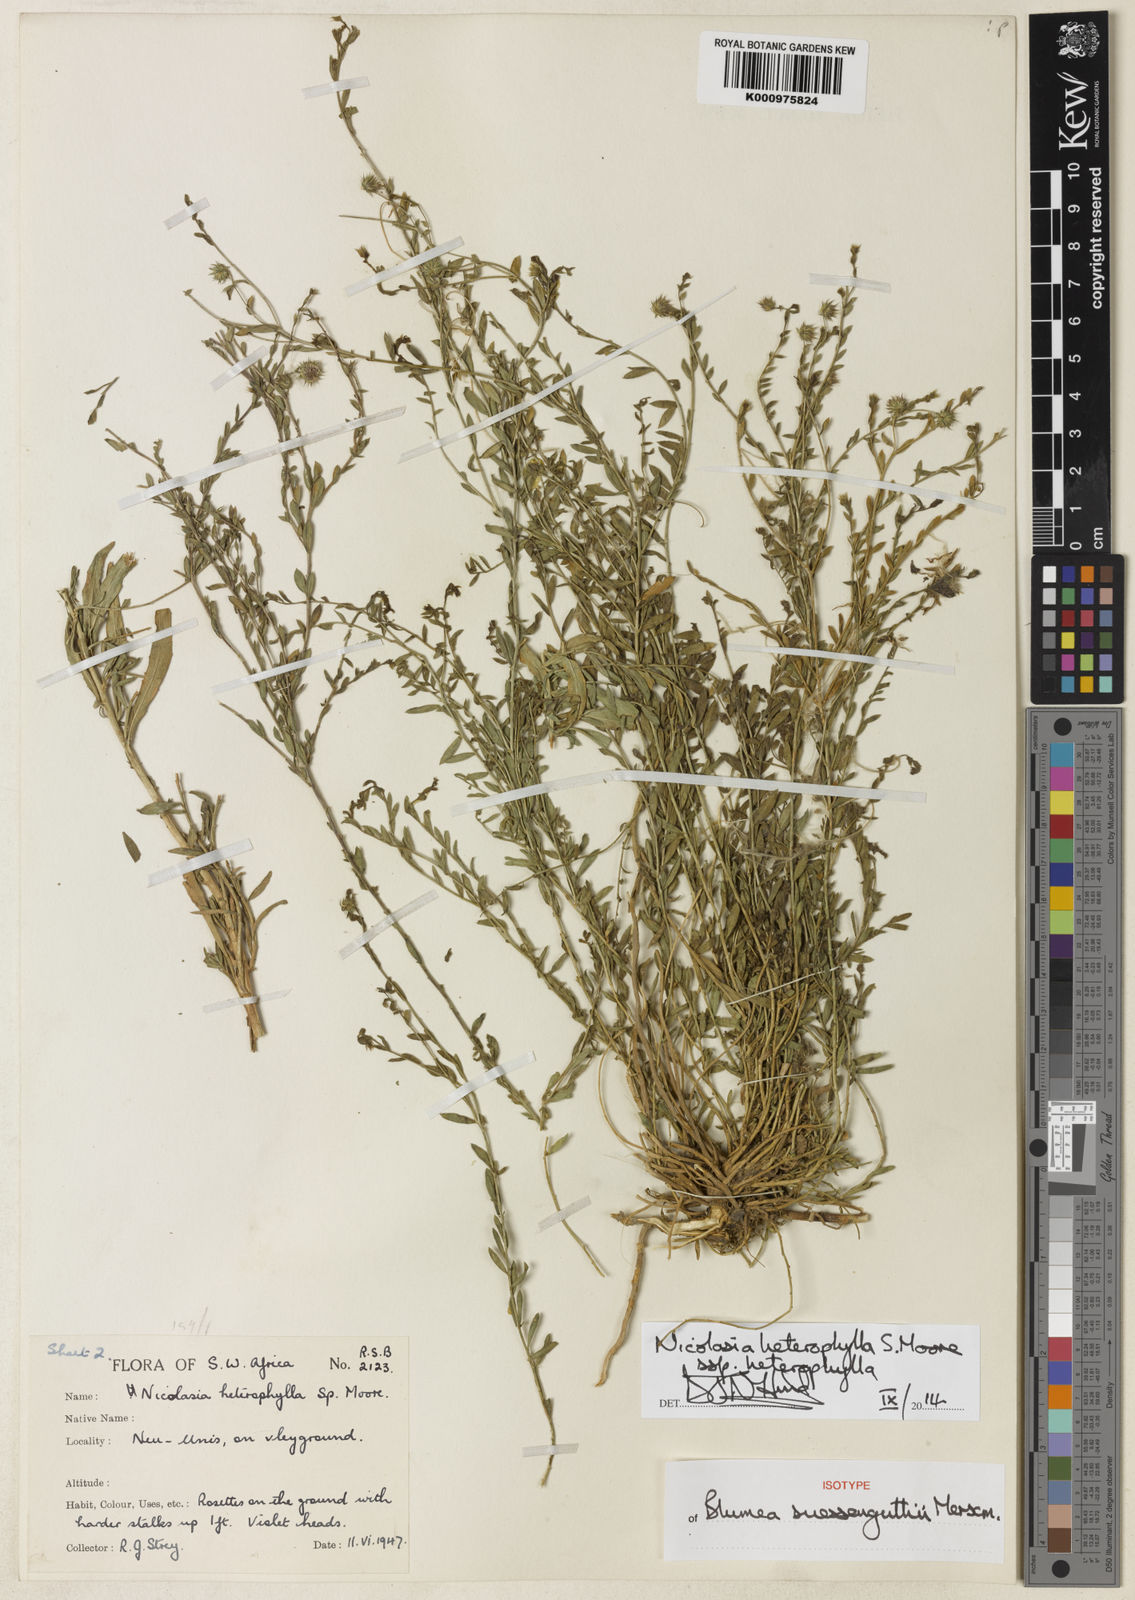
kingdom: Plantae
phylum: Tracheophyta
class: Magnoliopsida
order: Asterales
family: Asteraceae
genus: Nicolasia
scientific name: Nicolasia heterophylla
